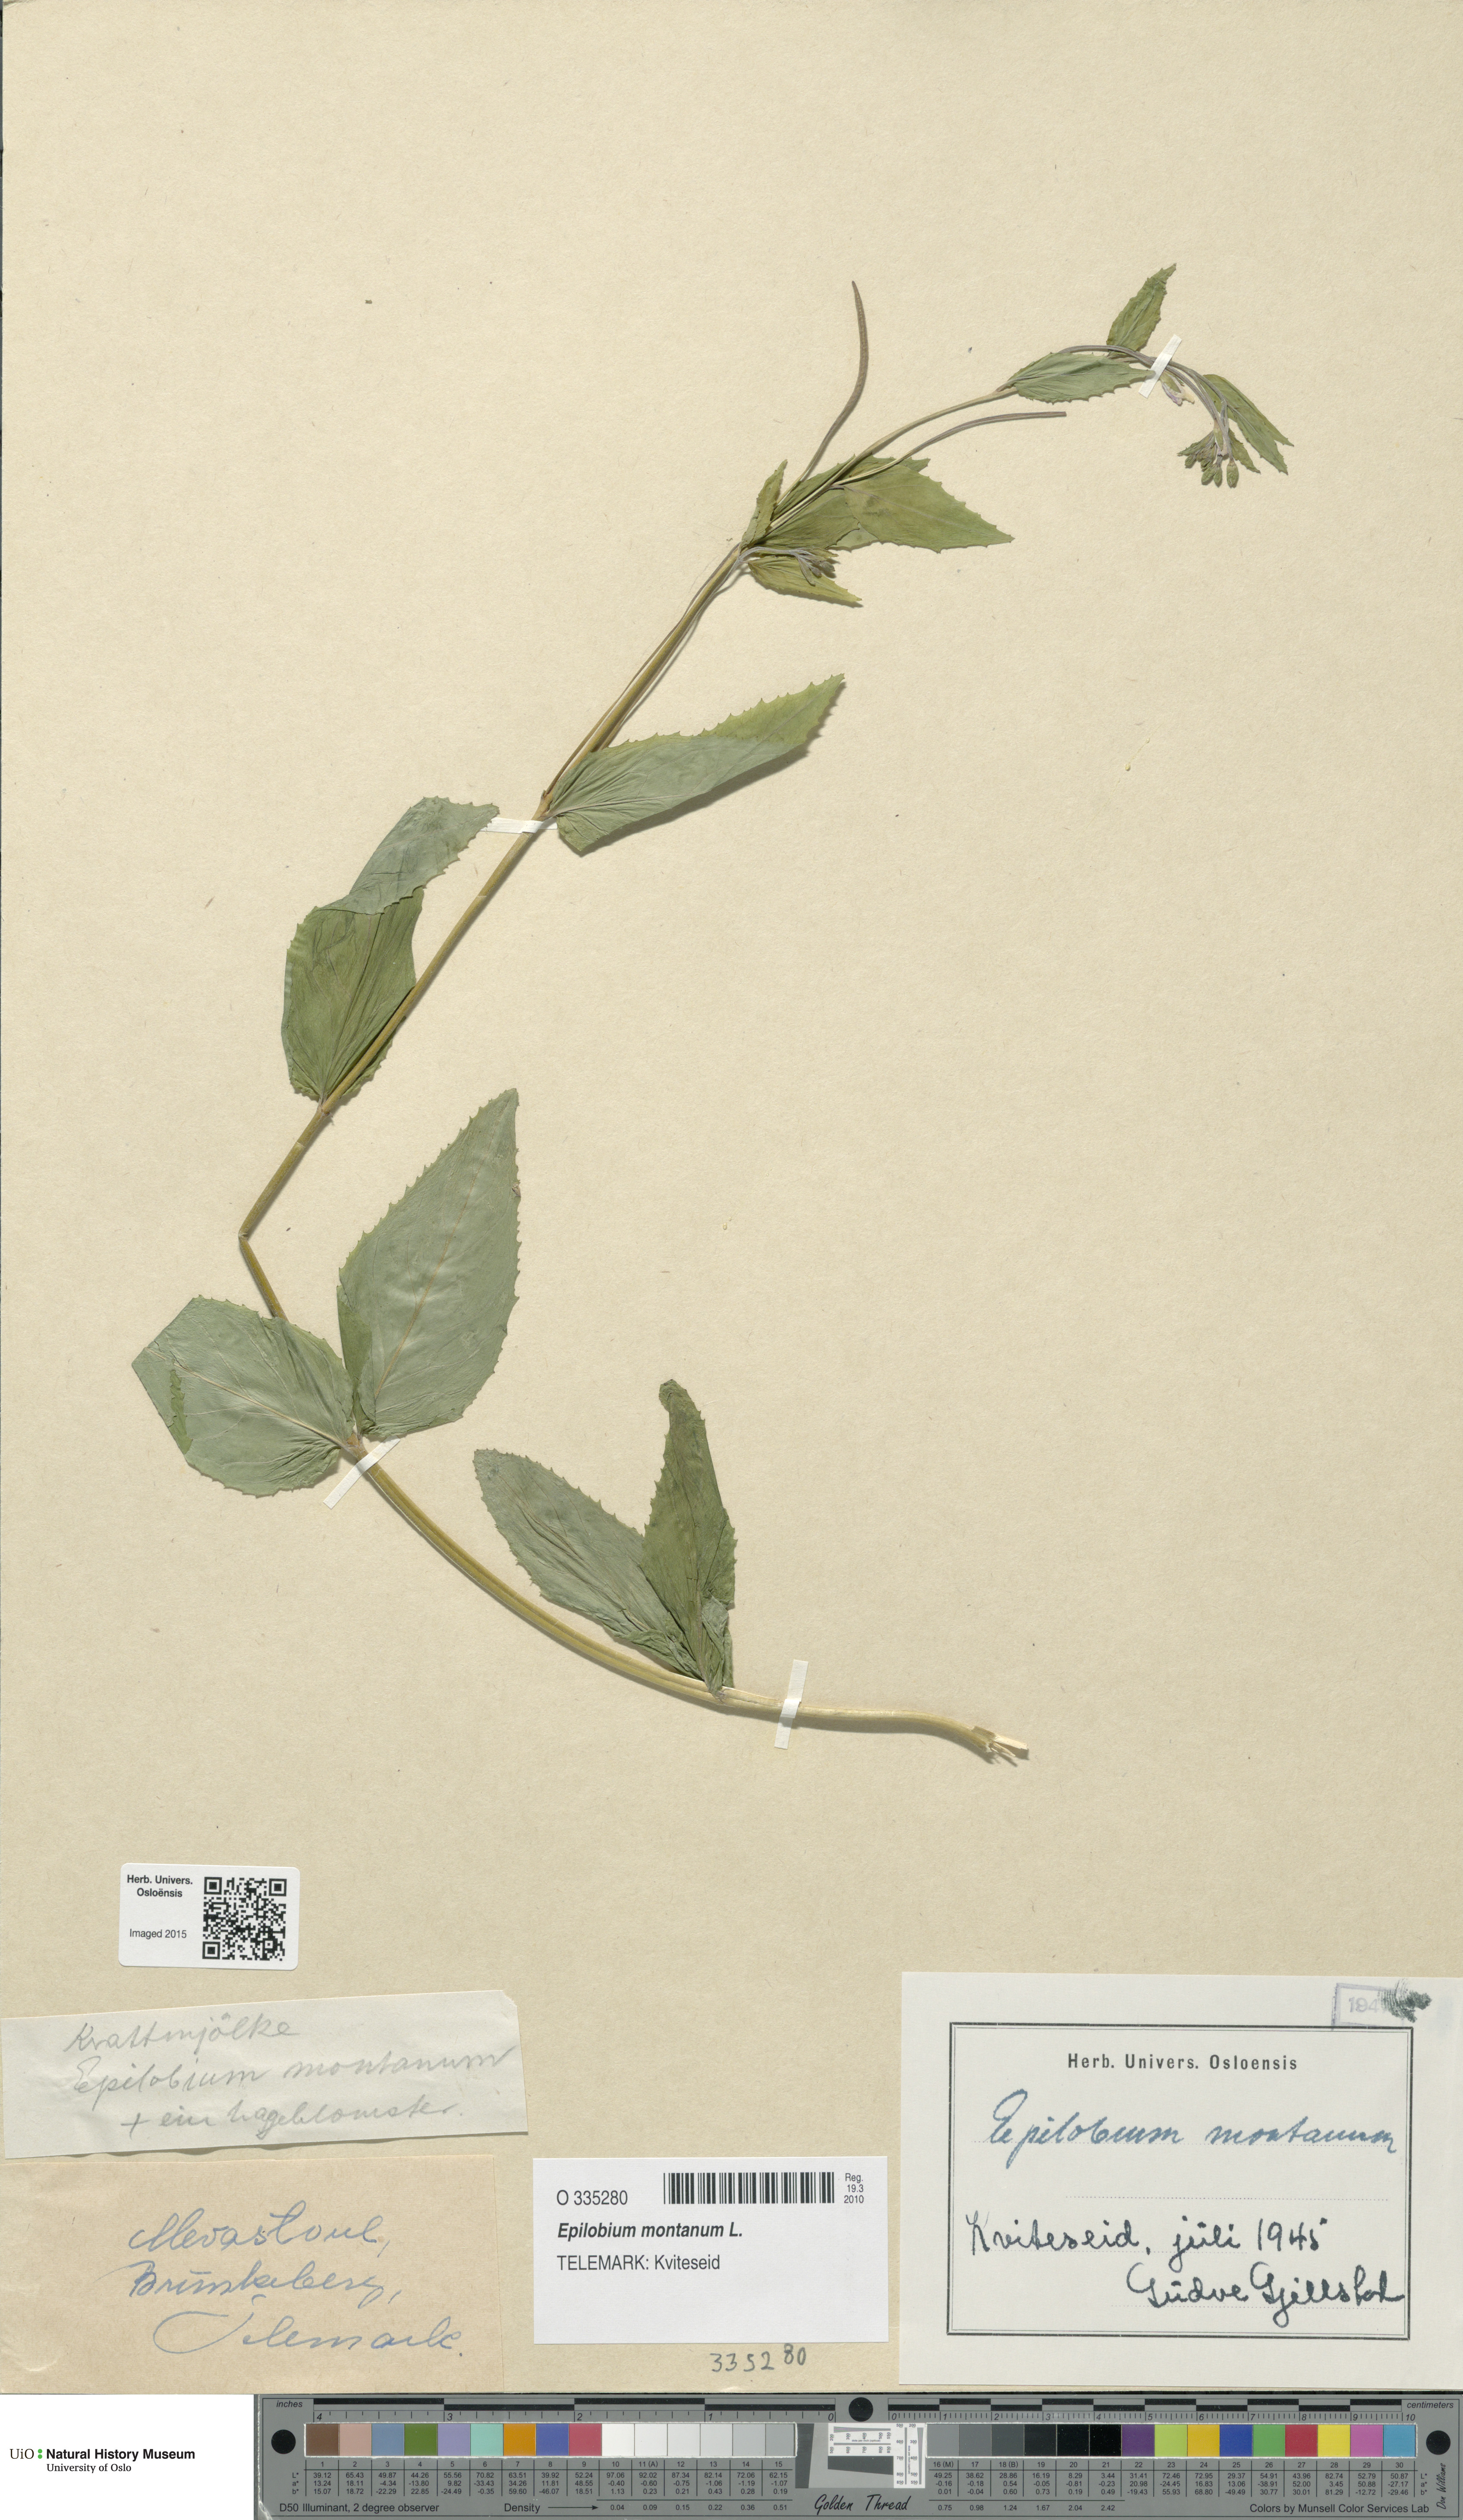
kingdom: Plantae
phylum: Tracheophyta
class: Magnoliopsida
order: Myrtales
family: Onagraceae
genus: Epilobium
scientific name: Epilobium montanum
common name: Broad-leaved willowherb
